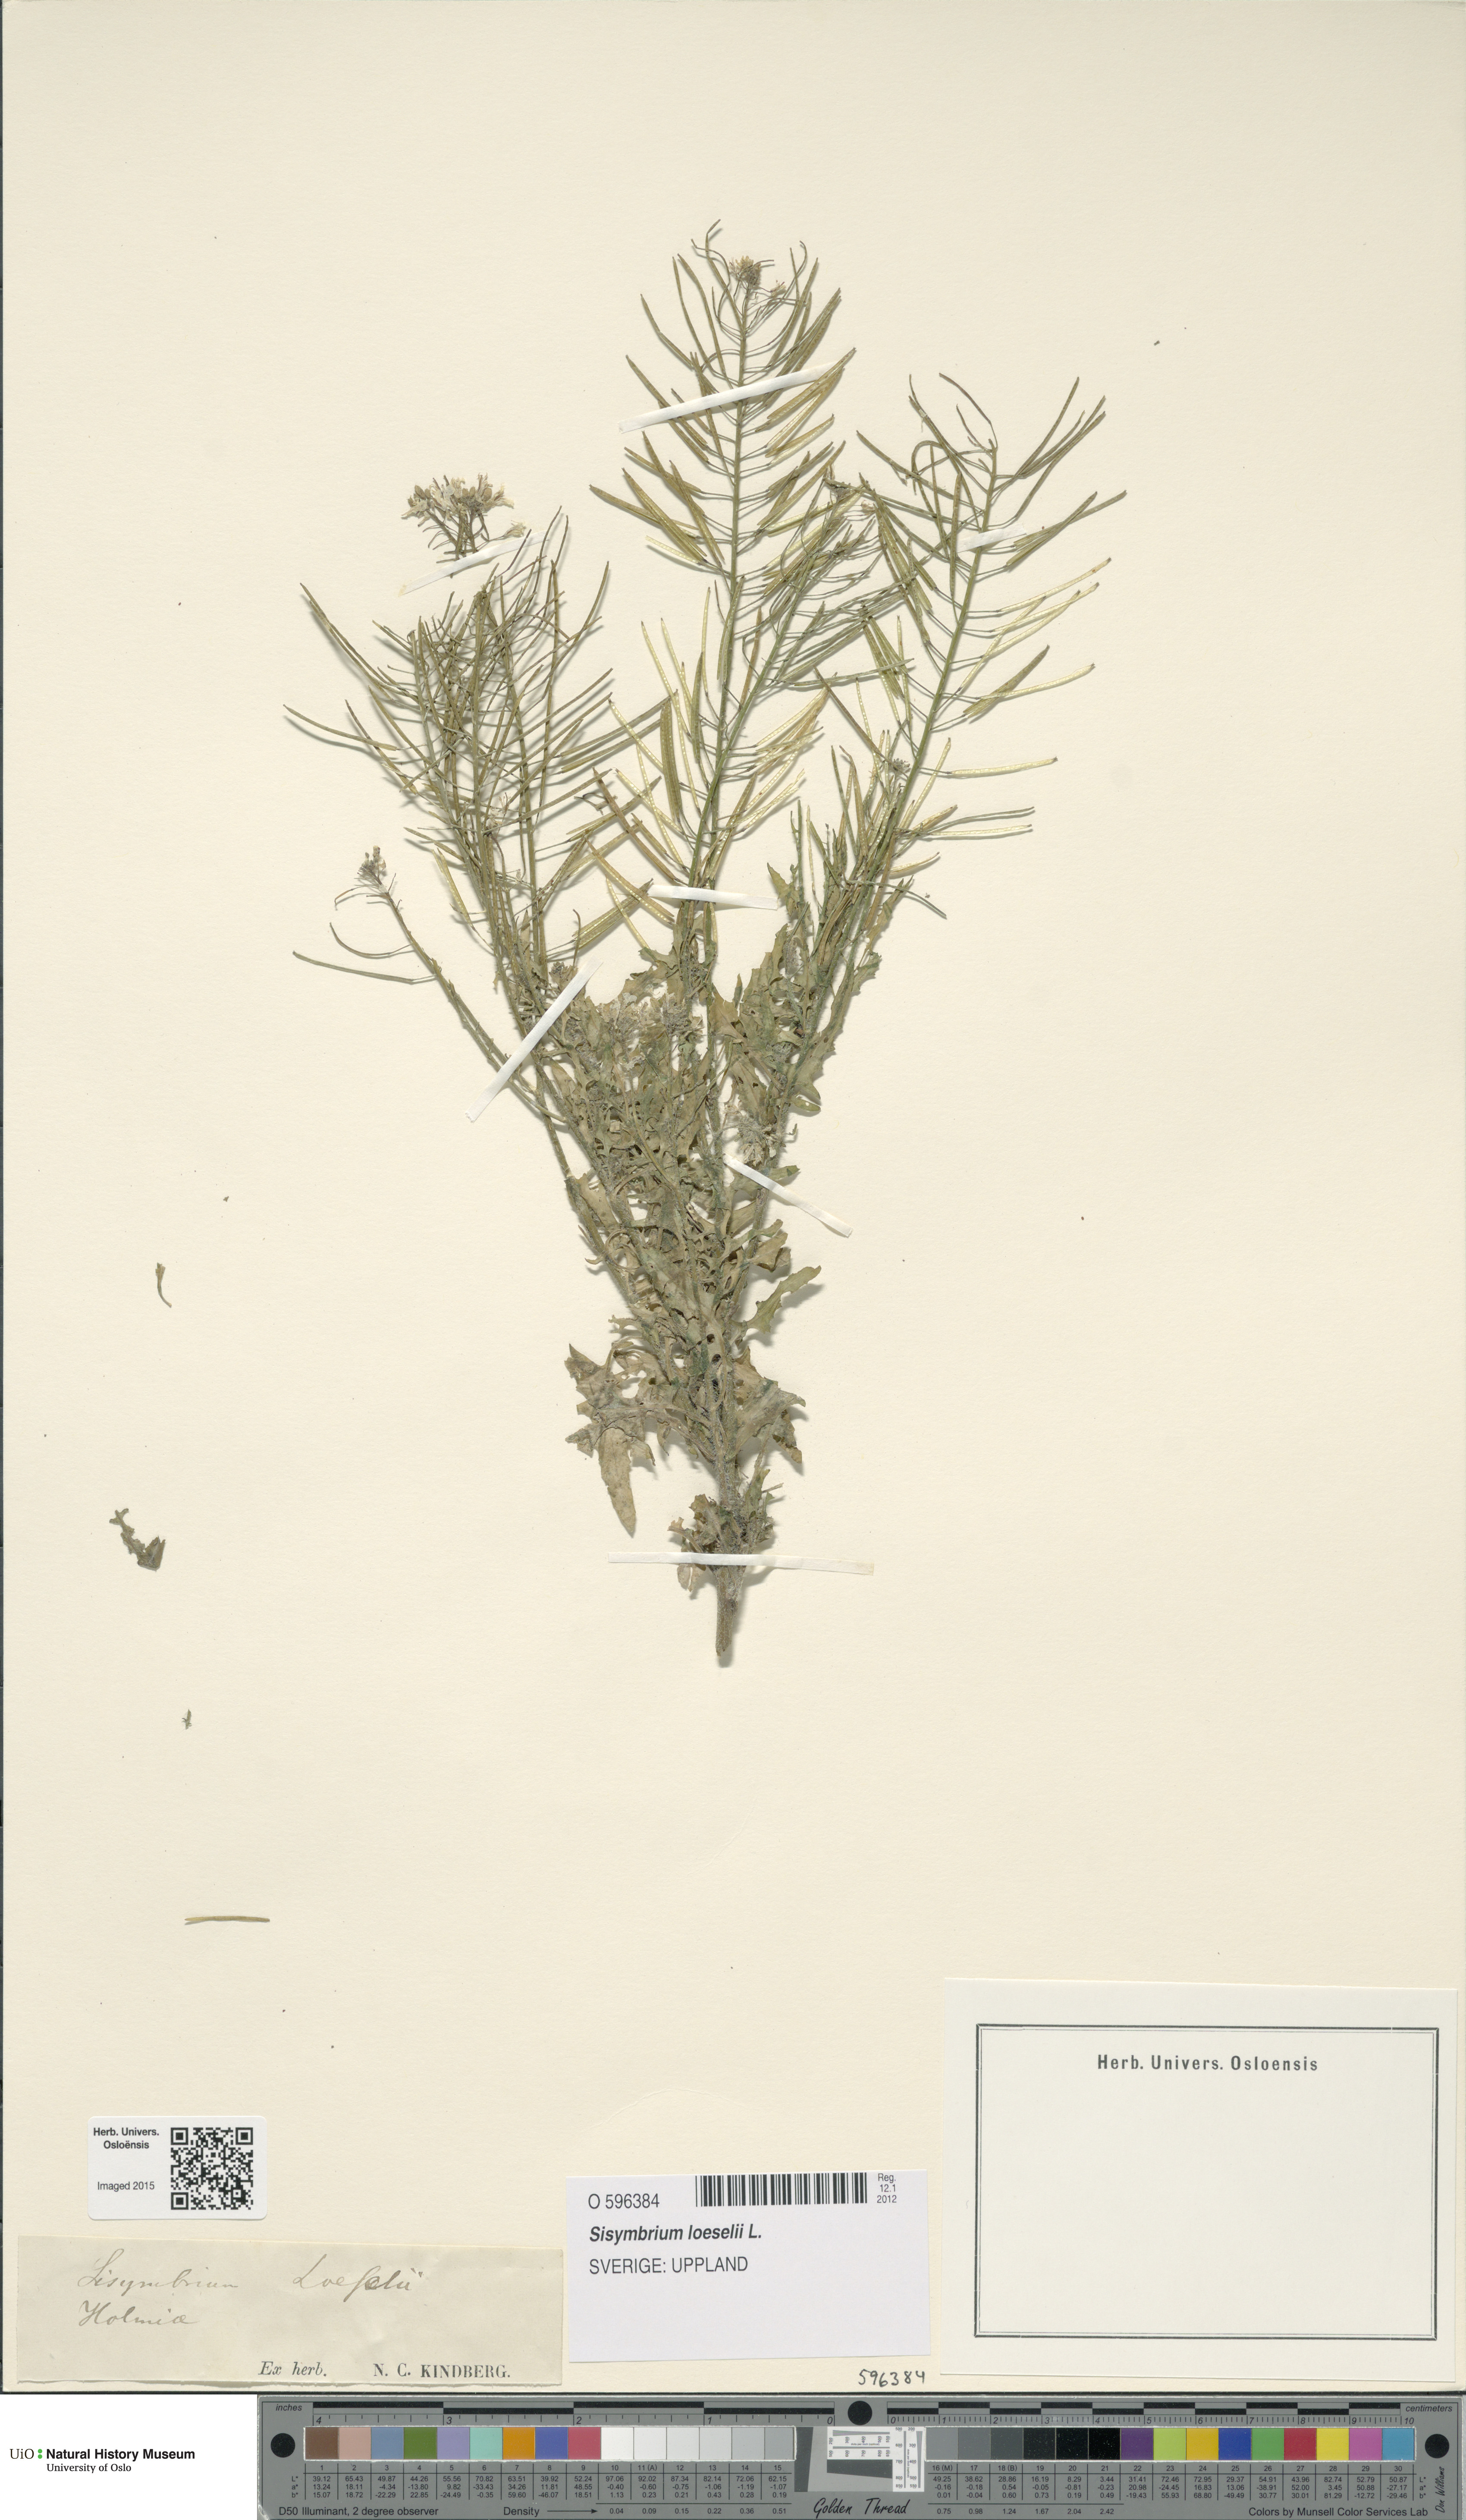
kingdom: Plantae
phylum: Tracheophyta
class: Magnoliopsida
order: Brassicales
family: Brassicaceae
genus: Sisymbrium
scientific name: Sisymbrium loeselii
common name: False london-rocket
